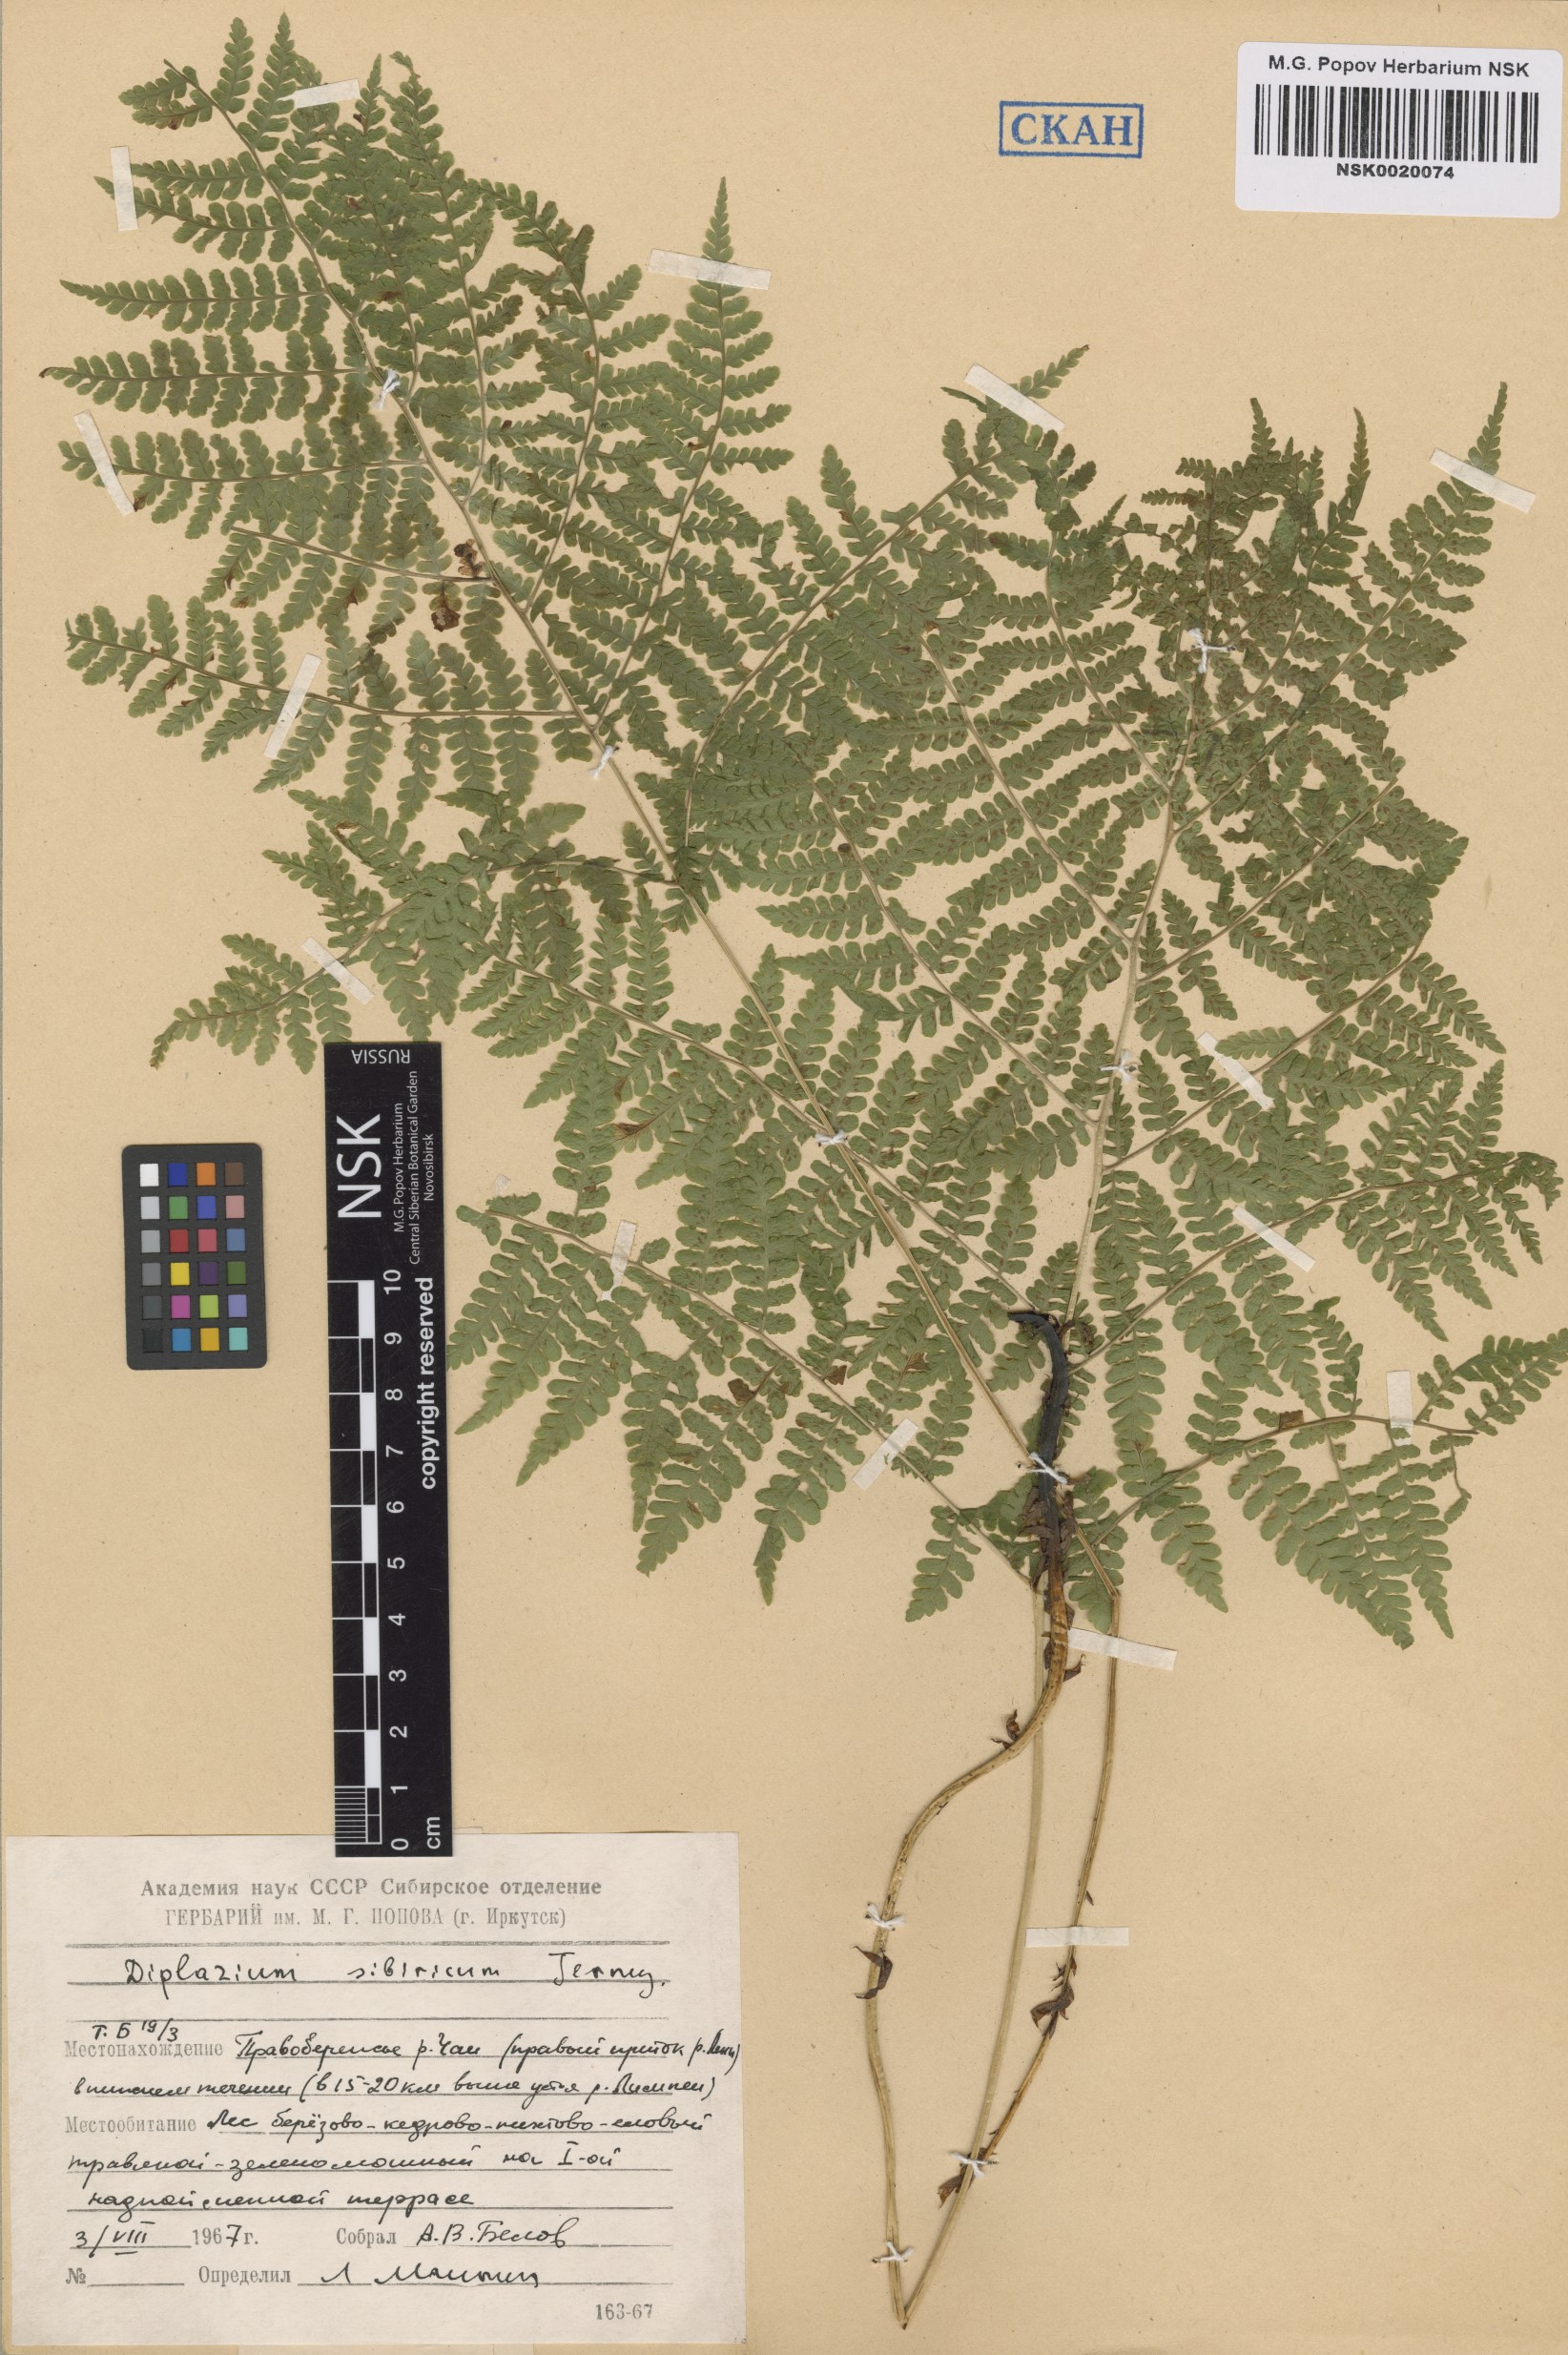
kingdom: Plantae
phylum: Tracheophyta
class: Polypodiopsida
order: Polypodiales
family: Athyriaceae
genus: Diplazium
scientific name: Diplazium sibiricum
